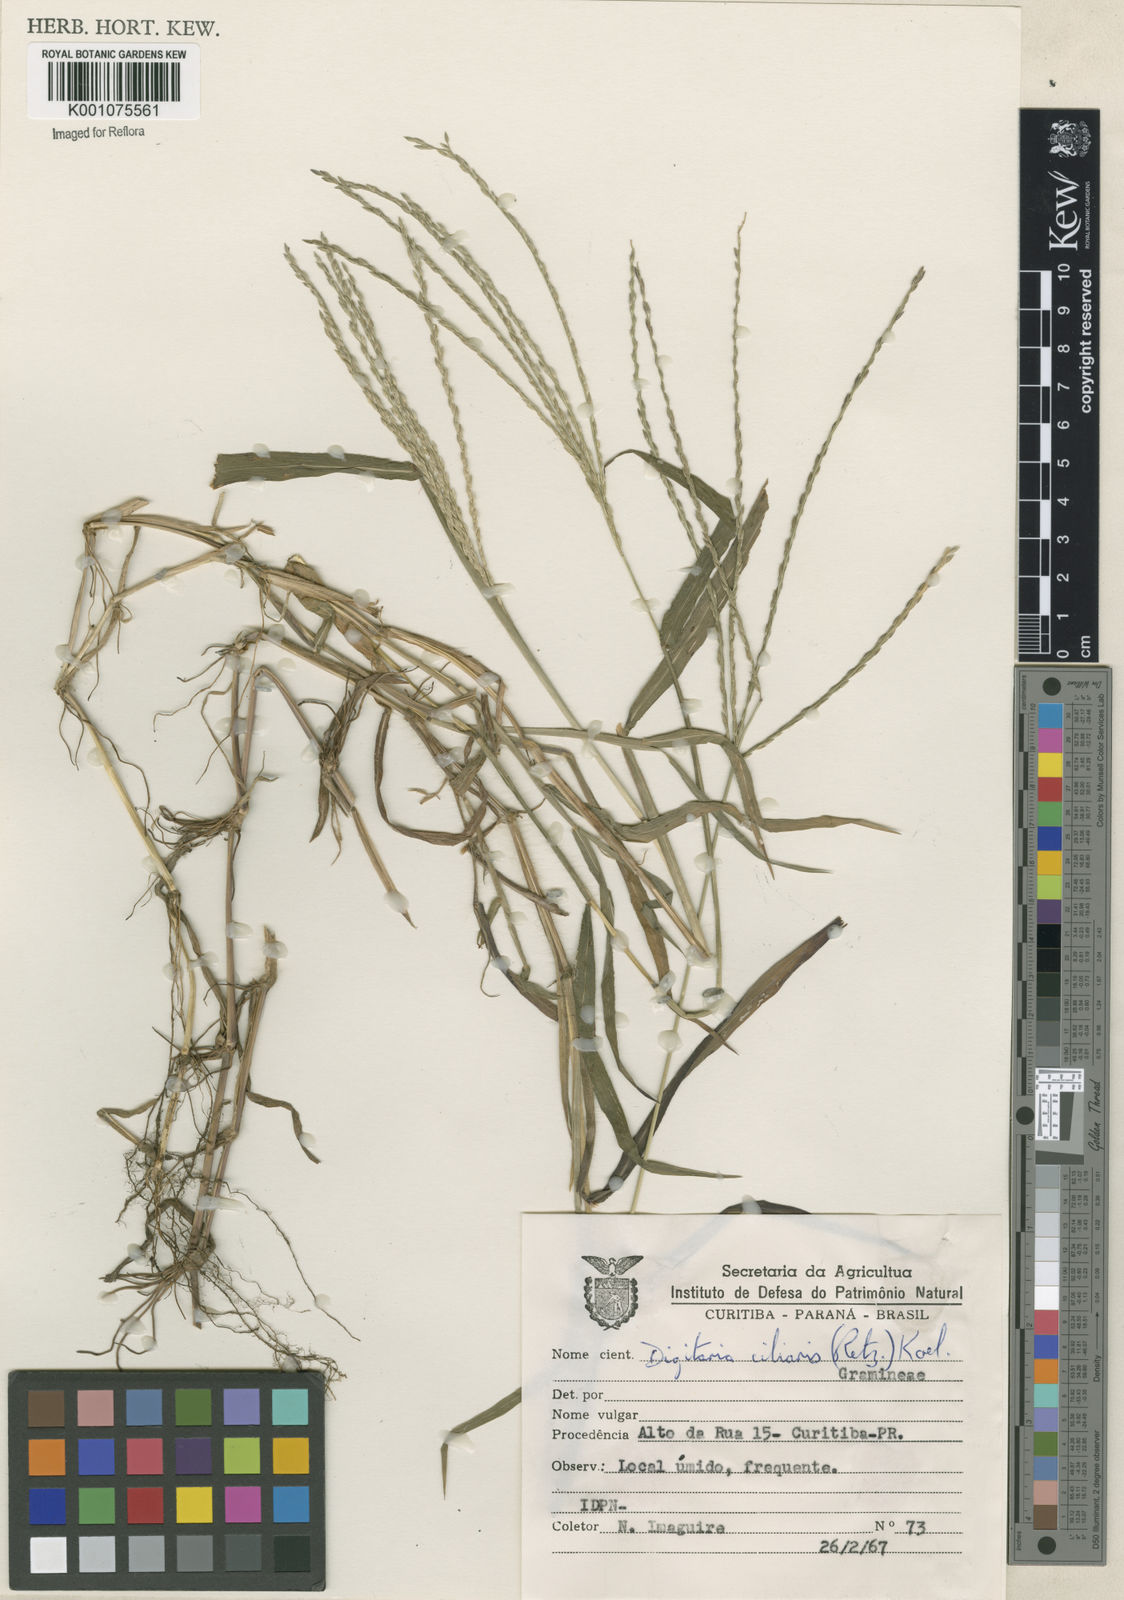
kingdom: Plantae
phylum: Tracheophyta
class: Liliopsida
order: Poales
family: Poaceae
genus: Digitaria
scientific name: Digitaria ciliaris
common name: Tropical finger-grass
